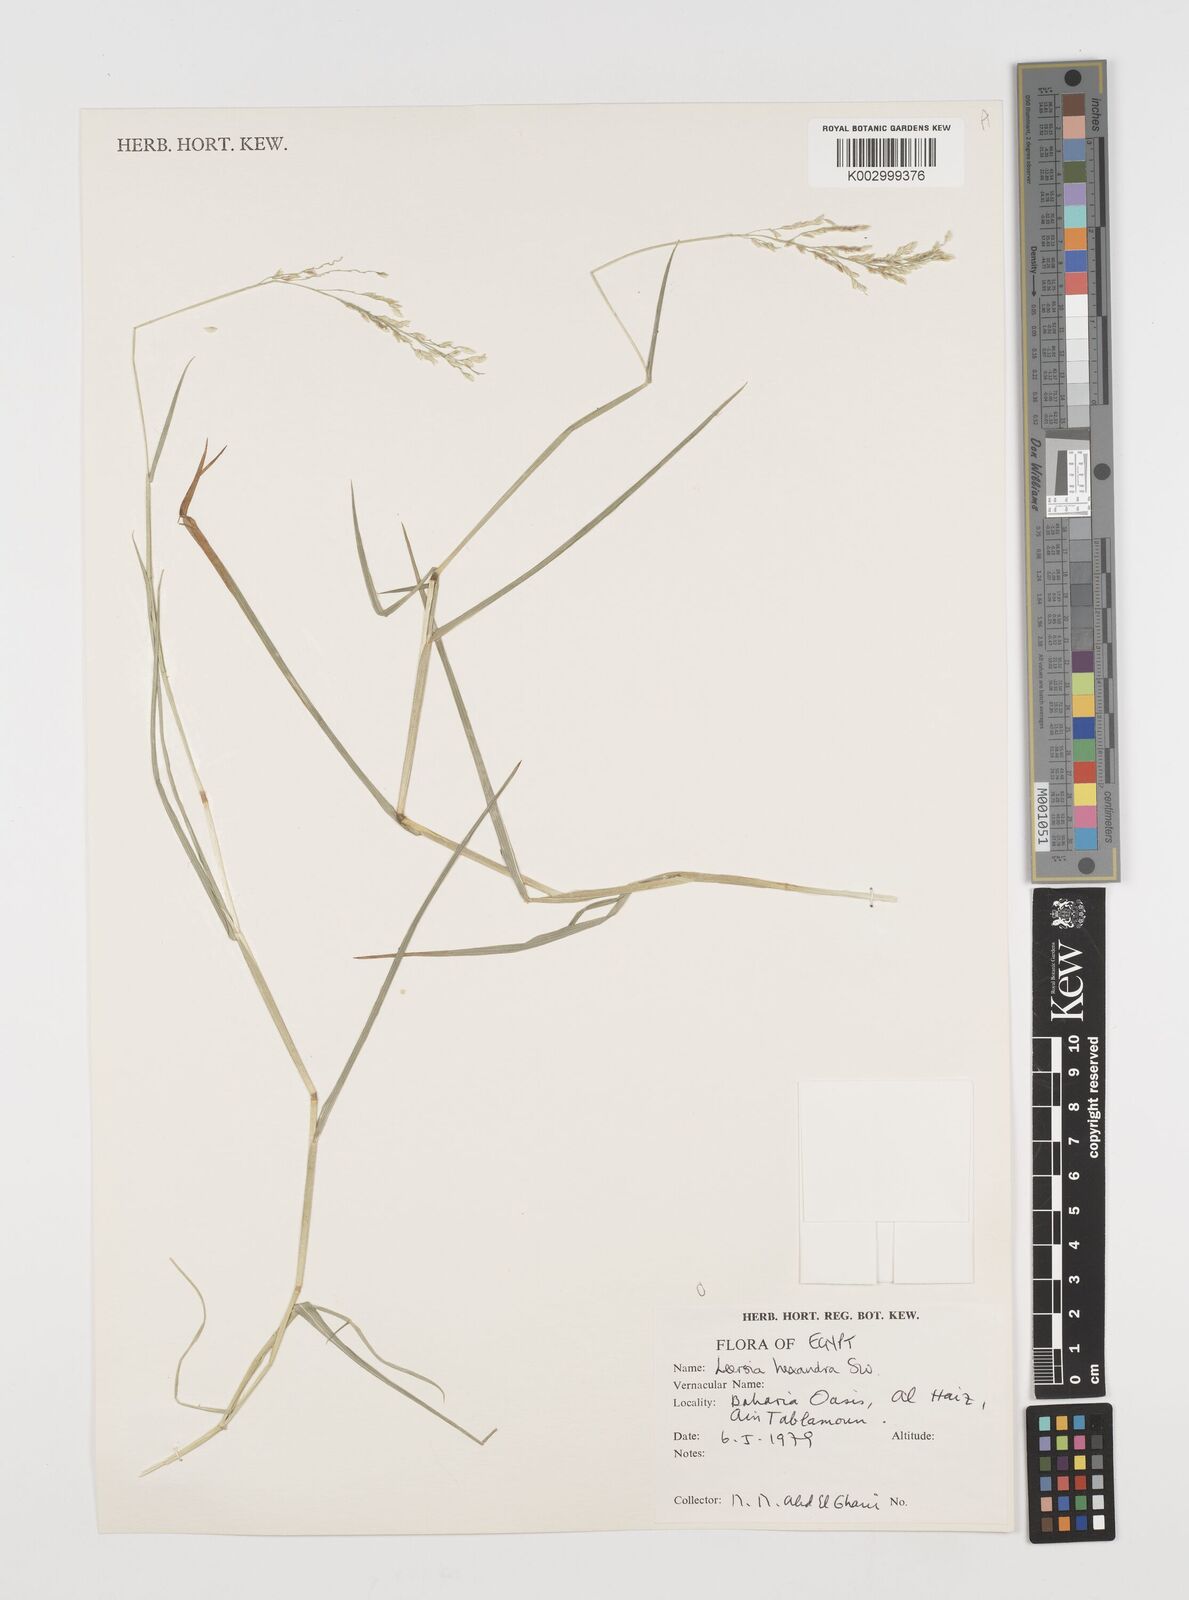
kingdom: Plantae
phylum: Tracheophyta
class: Liliopsida
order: Poales
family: Poaceae
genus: Leersia
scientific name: Leersia hexandra
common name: Southern cut grass
